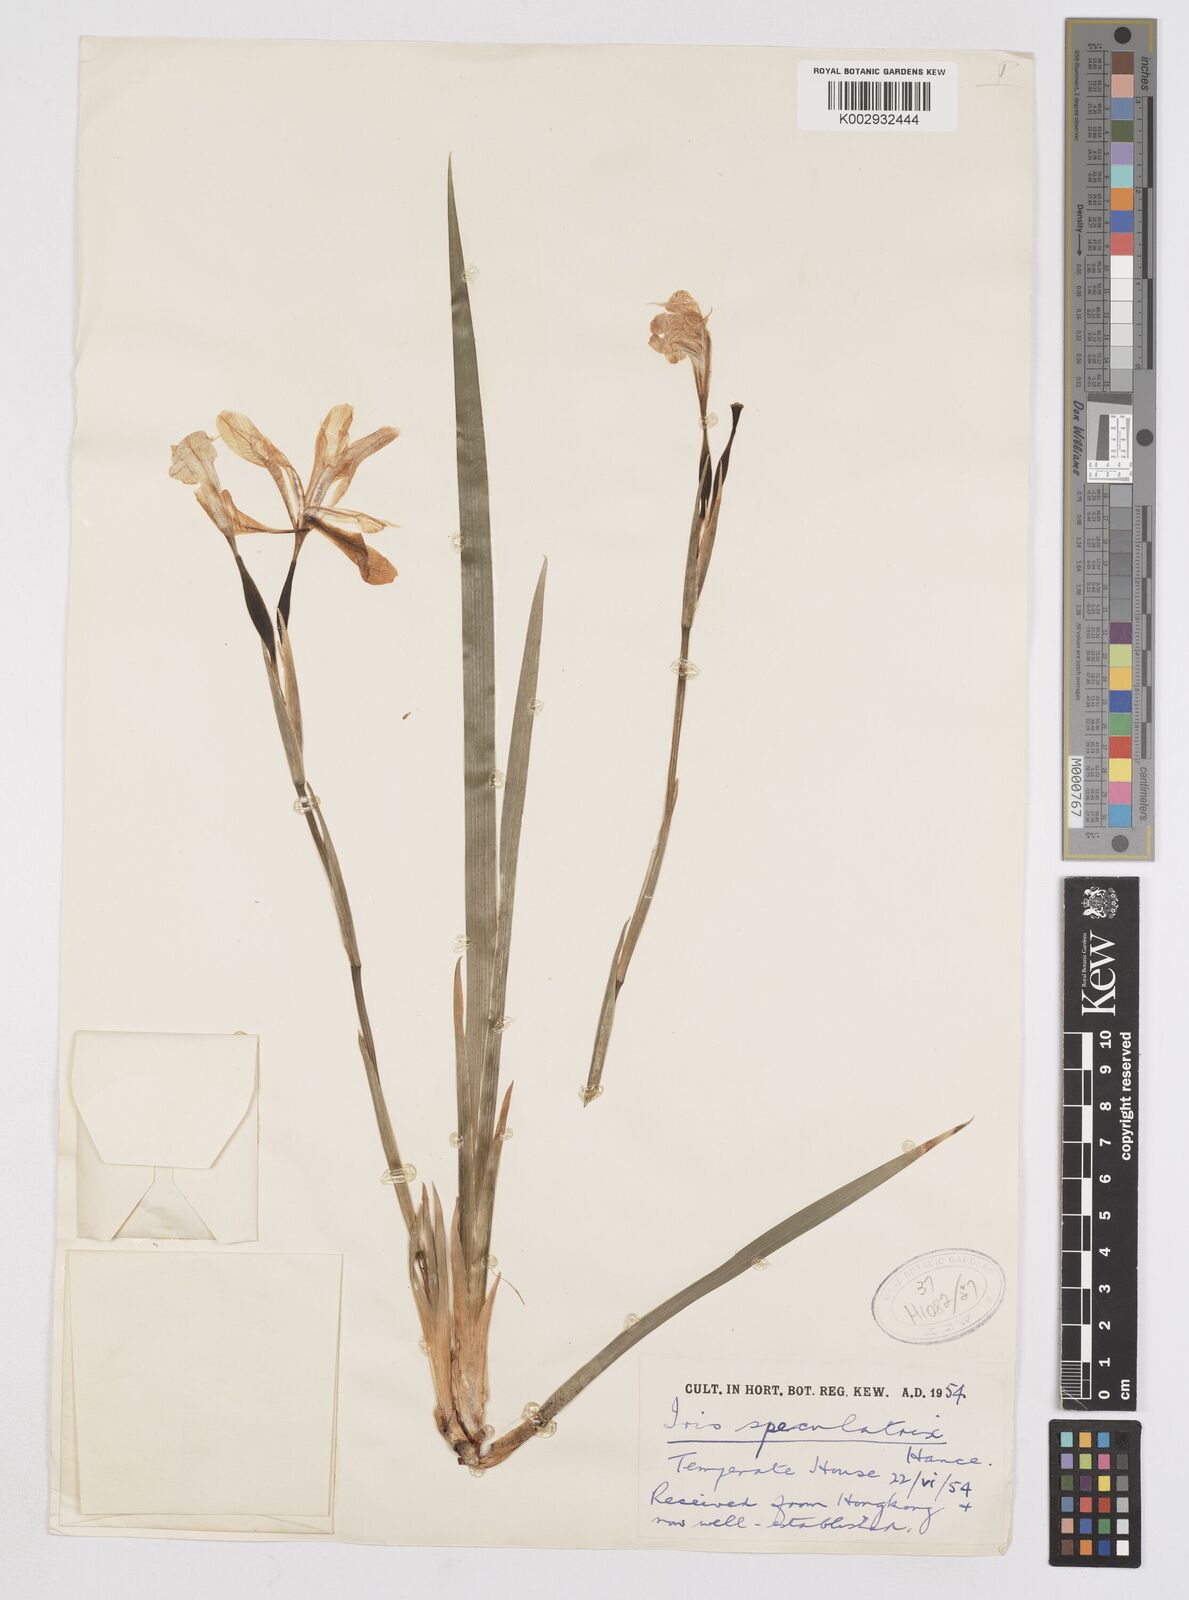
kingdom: Plantae
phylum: Tracheophyta
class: Liliopsida
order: Asparagales
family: Iridaceae
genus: Iris
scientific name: Iris speculatrix
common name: Small-flower iris
